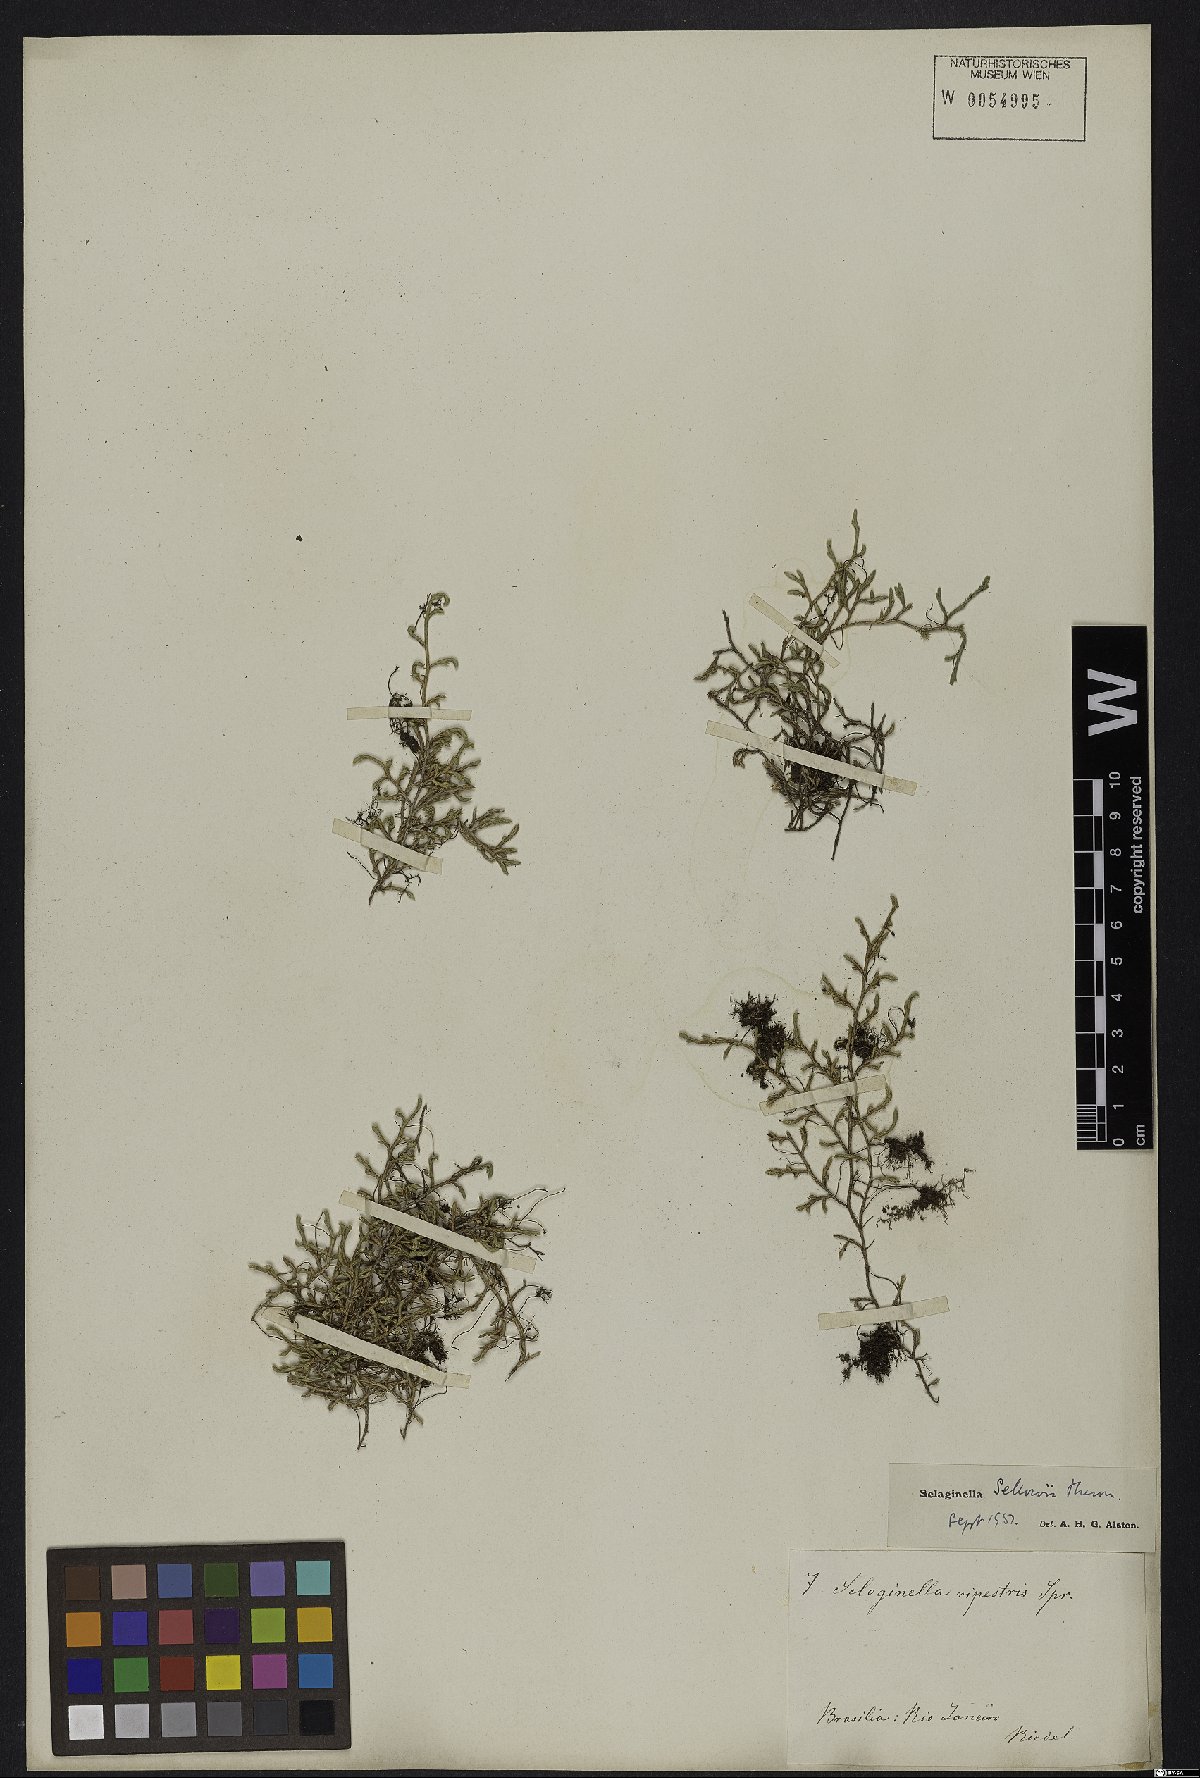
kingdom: Plantae
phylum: Tracheophyta
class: Lycopodiopsida
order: Selaginellales
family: Selaginellaceae
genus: Selaginella
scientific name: Selaginella sellowii
